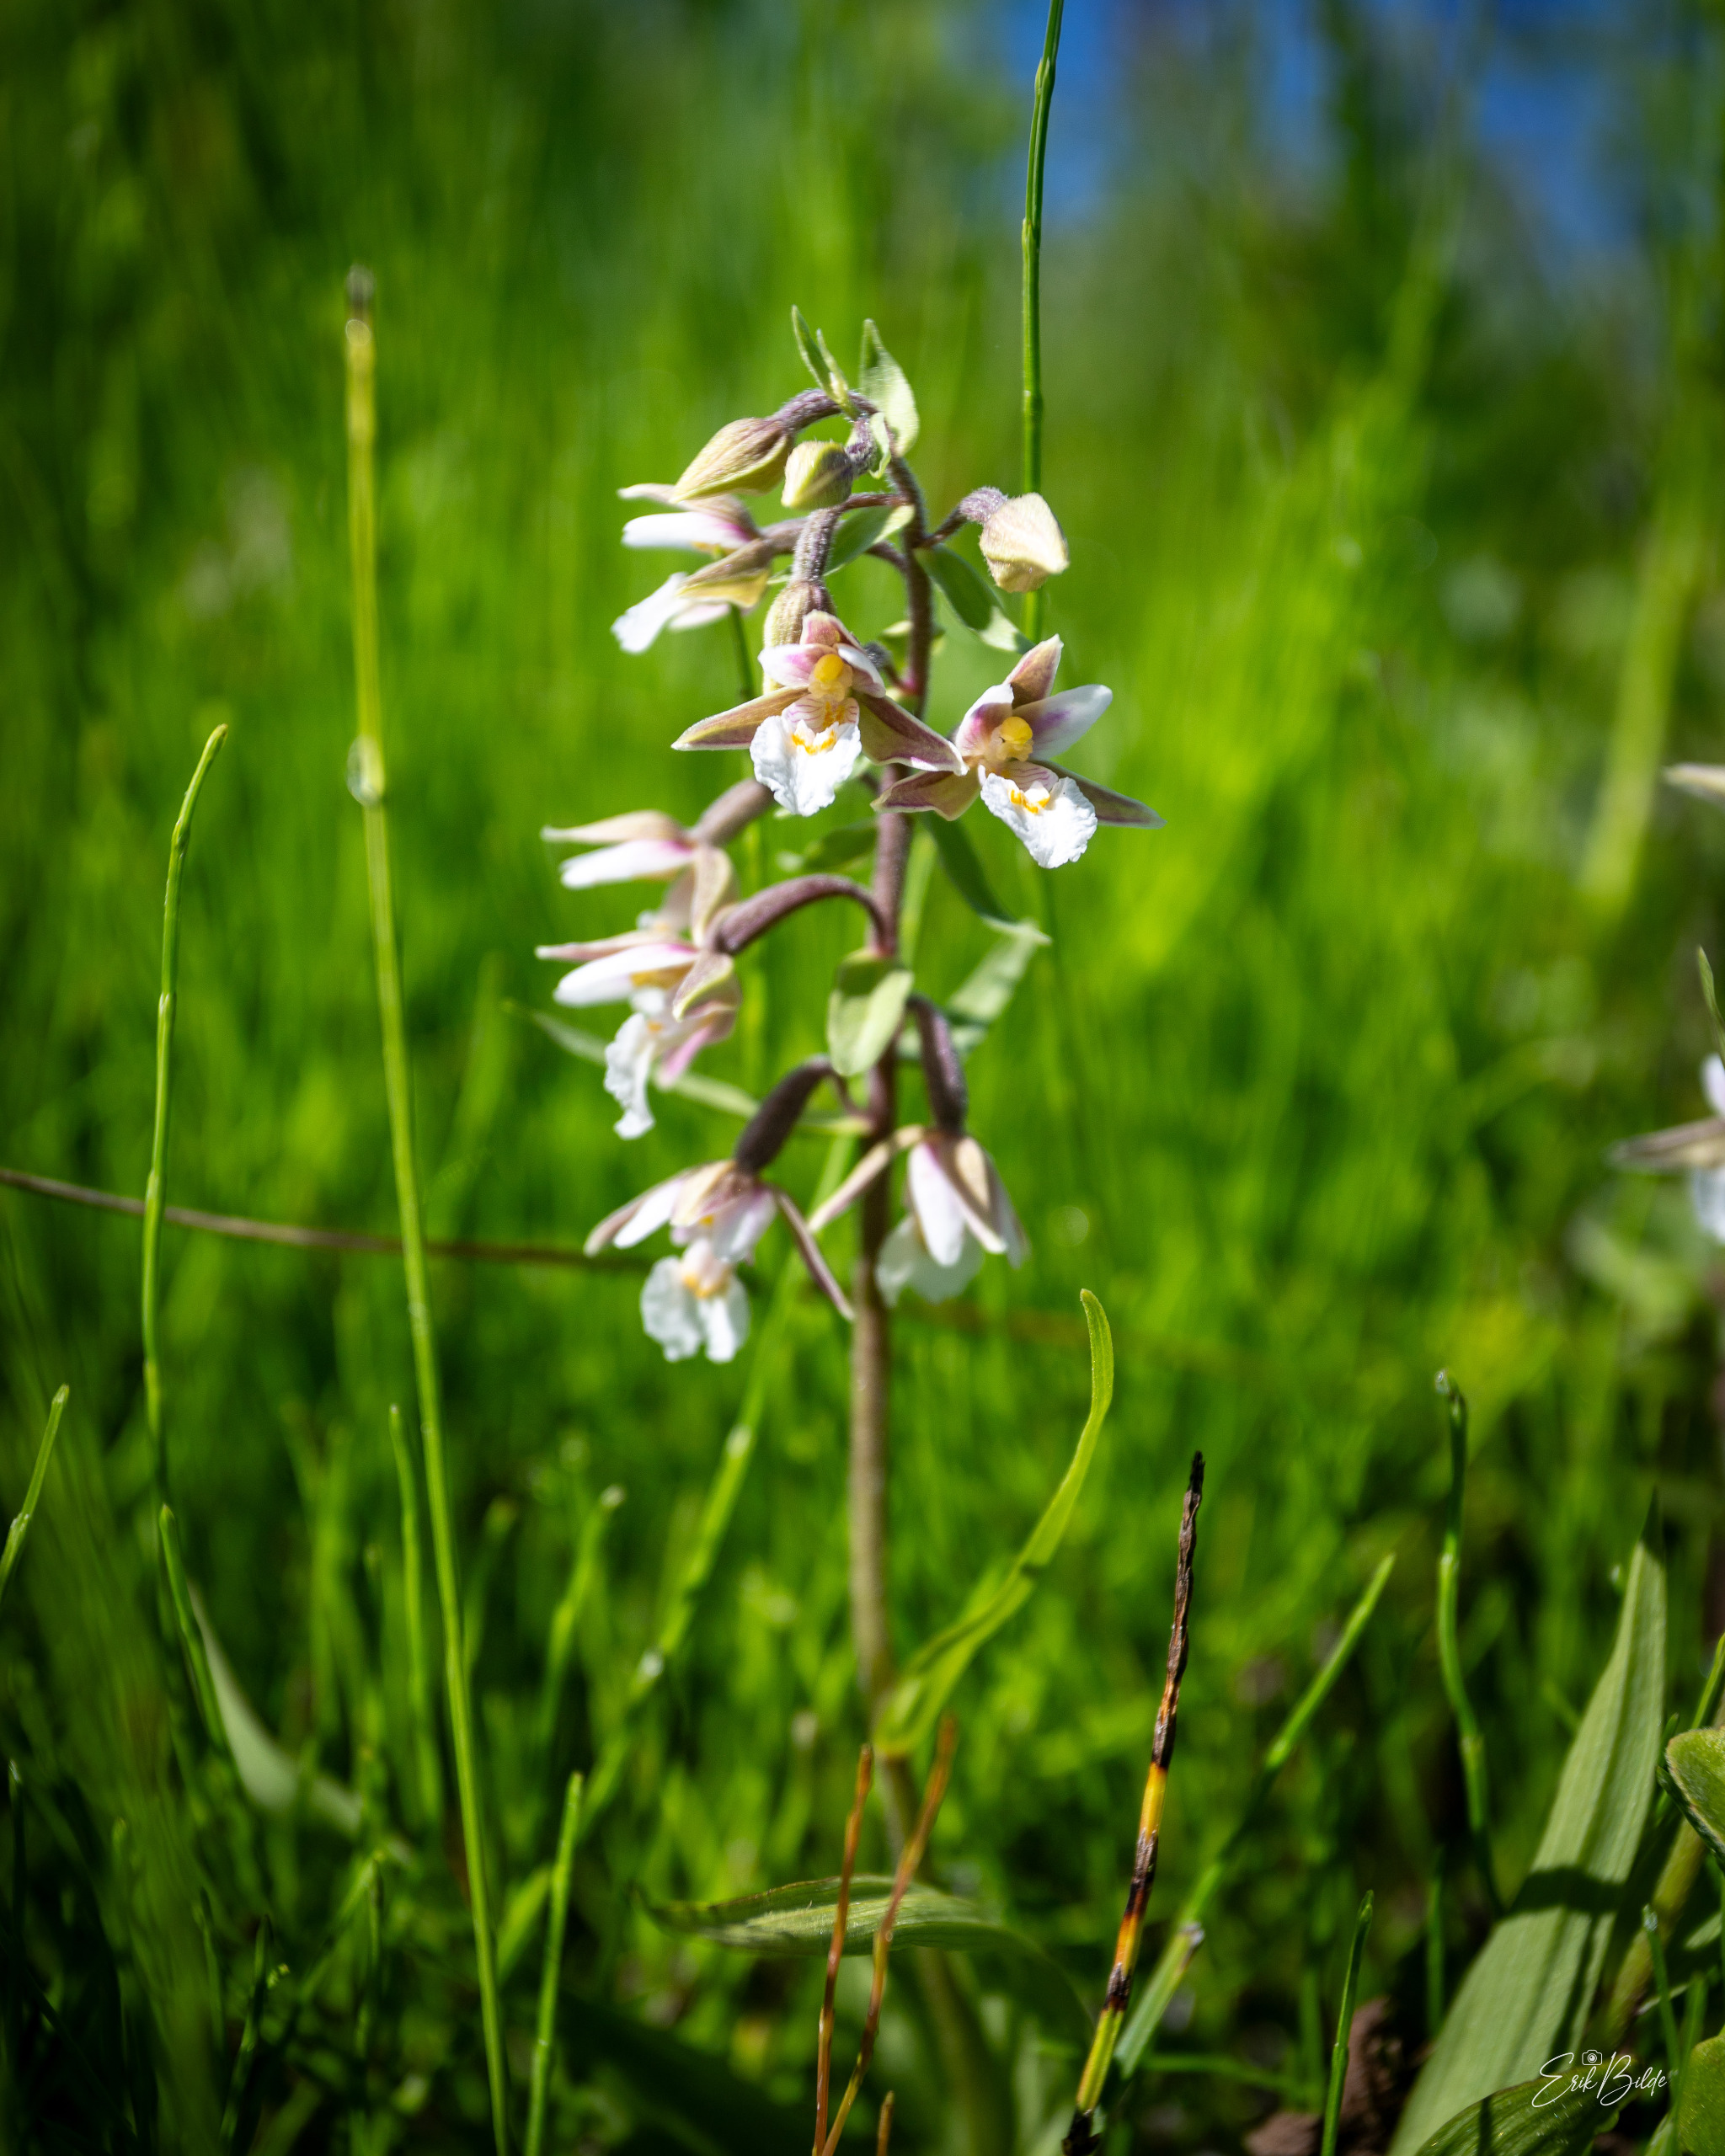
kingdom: Plantae
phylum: Tracheophyta
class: Liliopsida
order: Asparagales
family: Orchidaceae
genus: Epipactis
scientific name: Epipactis palustris
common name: Sump-hullæbe
